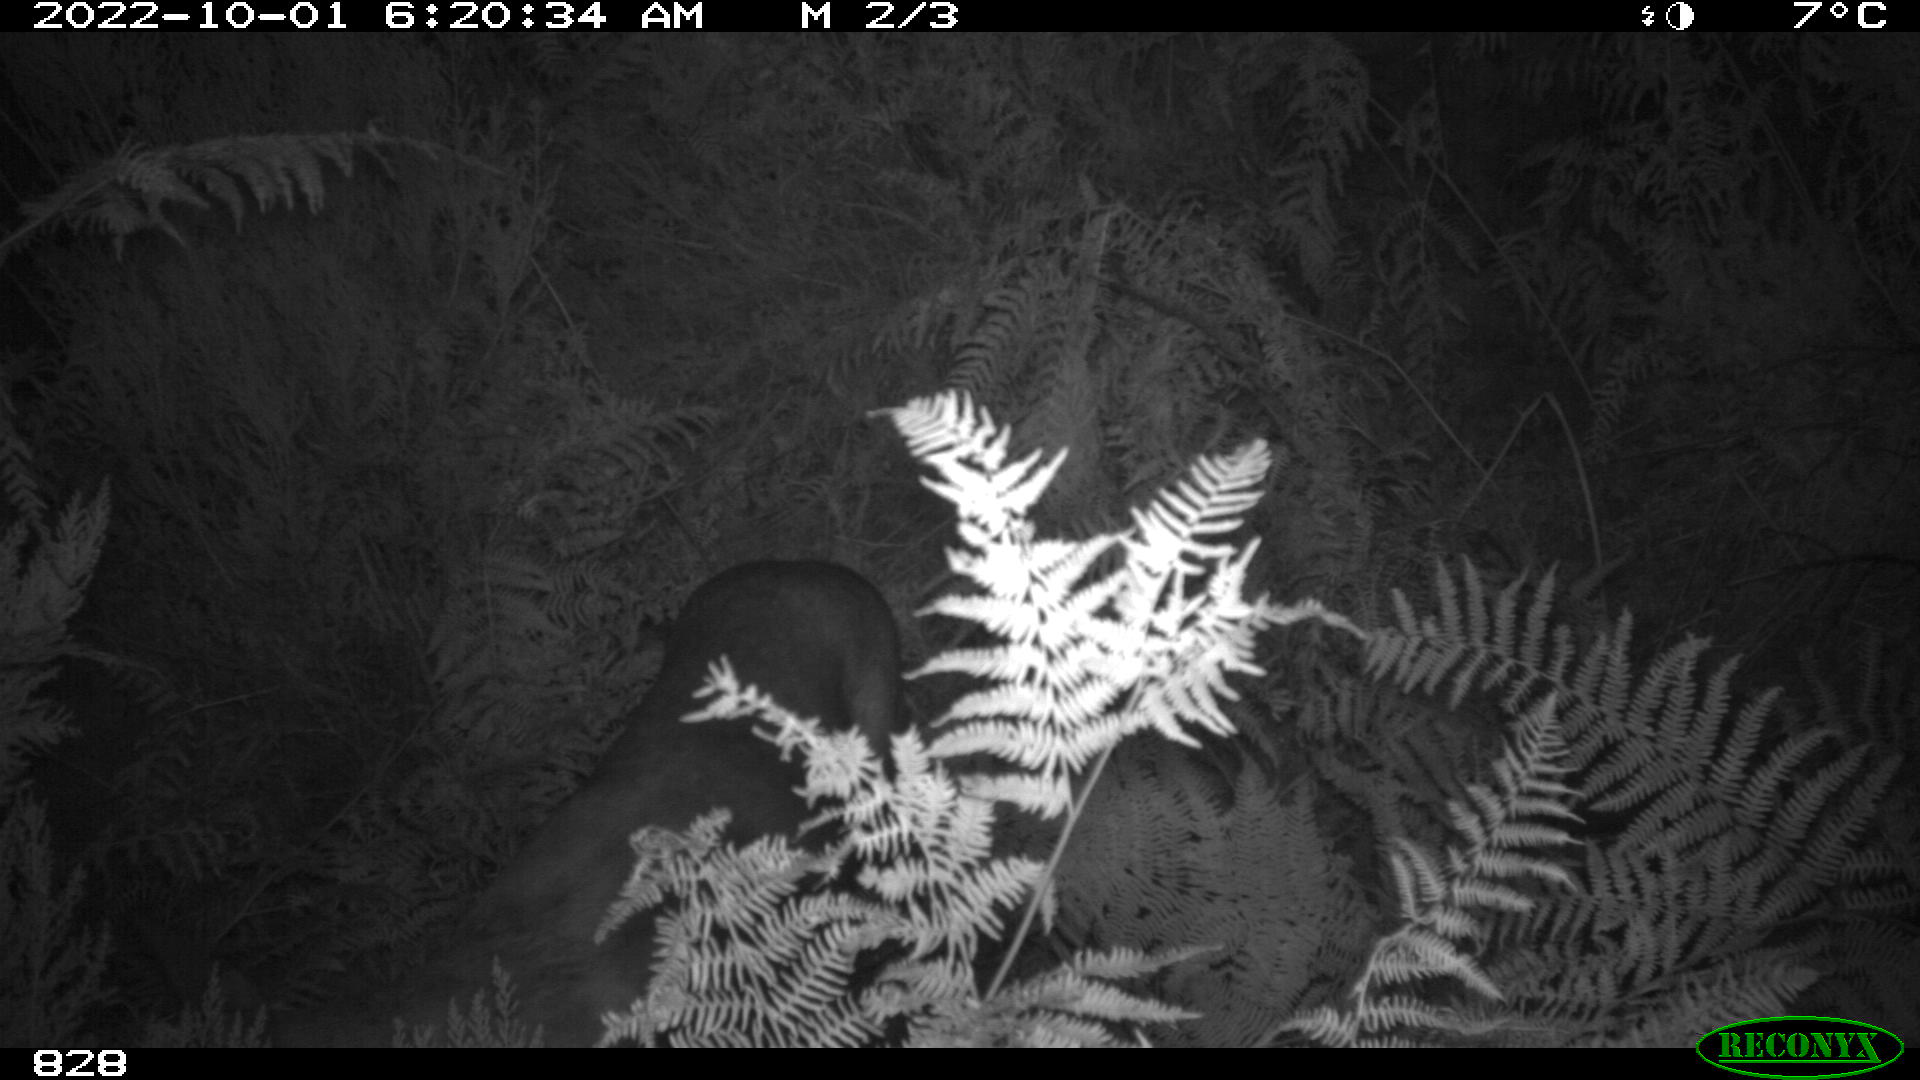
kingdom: Animalia
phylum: Chordata
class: Mammalia
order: Artiodactyla
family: Cervidae
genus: Capreolus
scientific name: Capreolus capreolus
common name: Western roe deer
